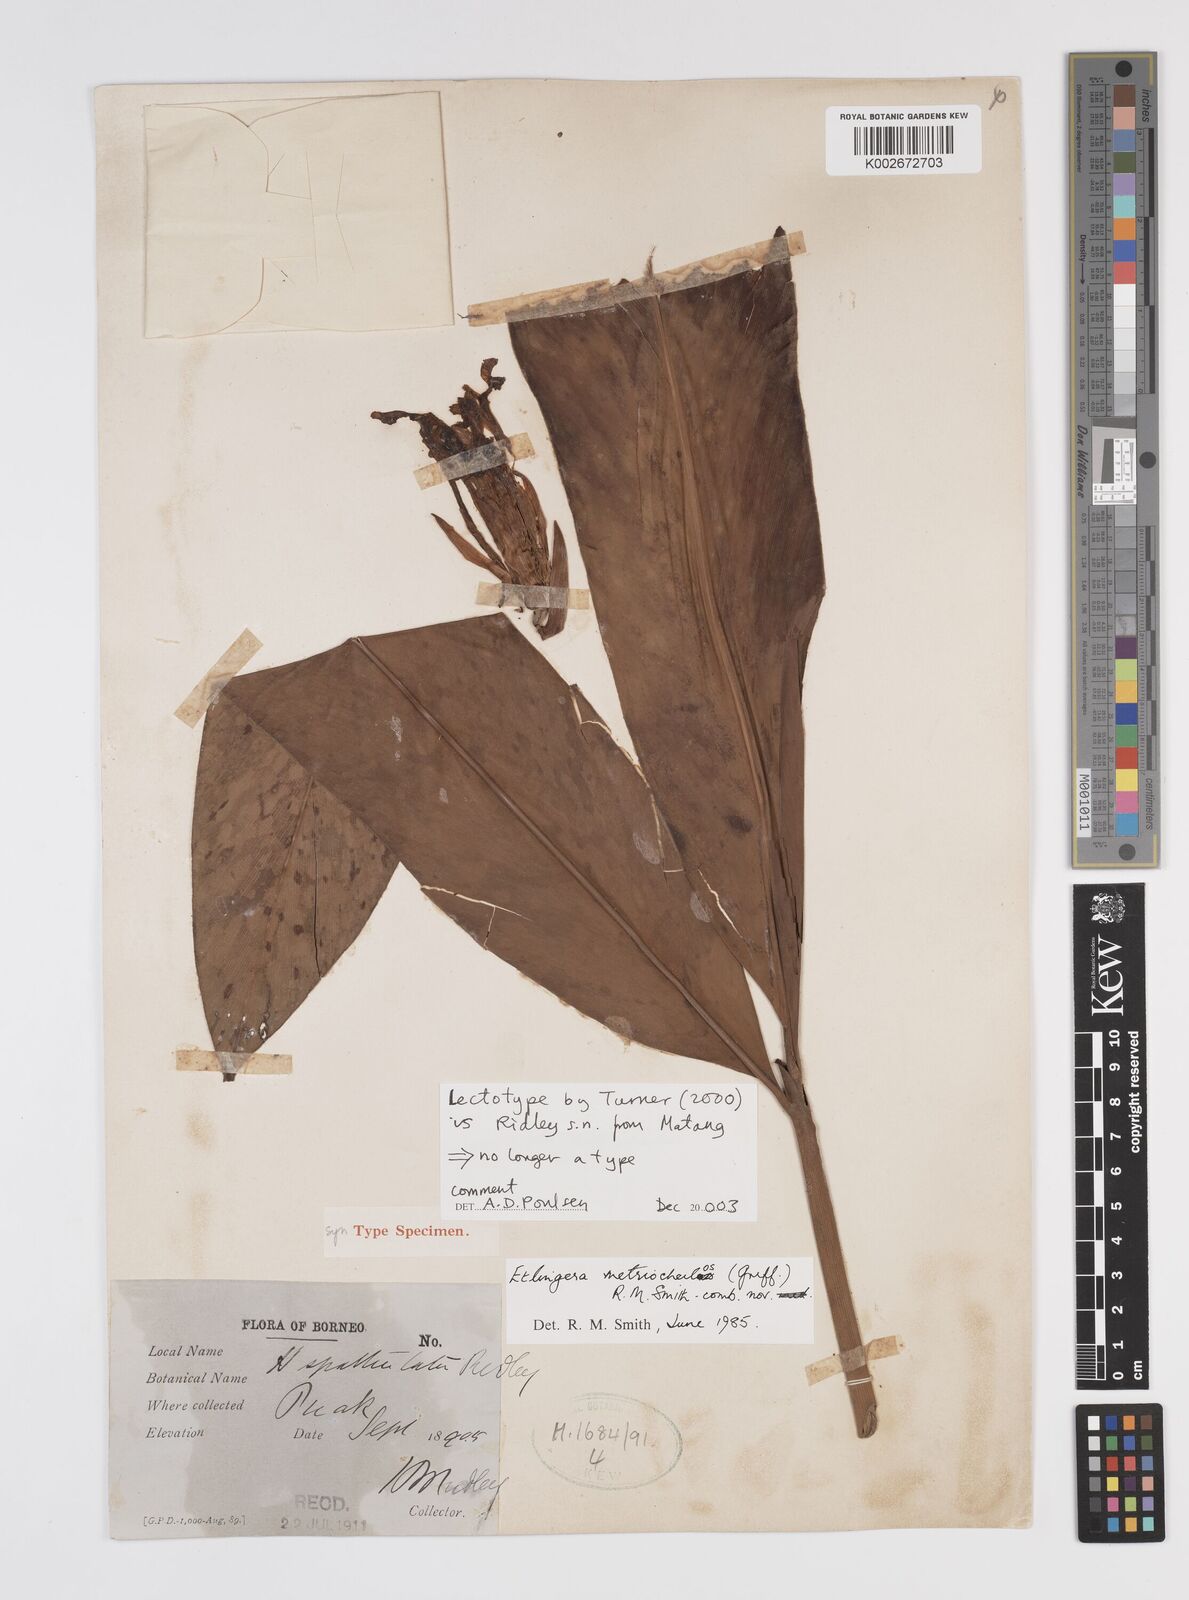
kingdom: Plantae
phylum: Tracheophyta
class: Liliopsida
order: Zingiberales
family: Zingiberaceae
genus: Etlingera
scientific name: Etlingera metriocheilos
